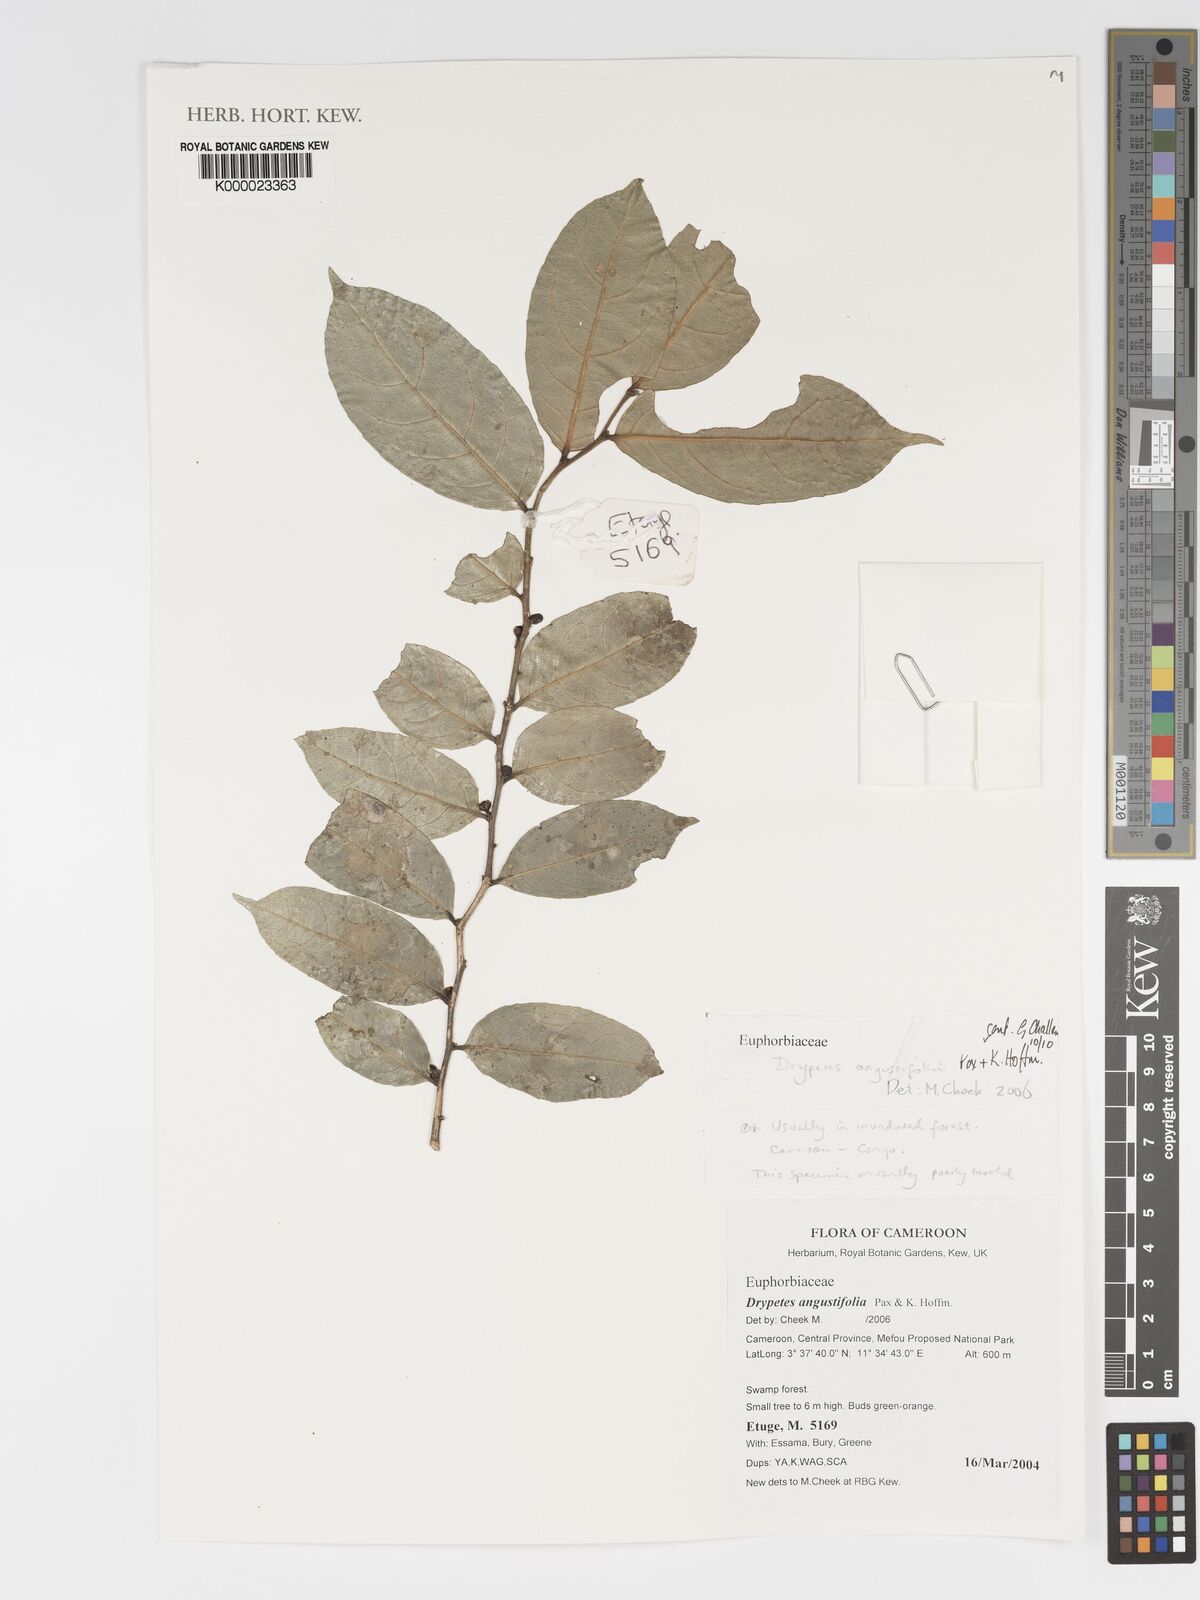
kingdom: Plantae
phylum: Tracheophyta
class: Magnoliopsida
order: Malpighiales
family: Putranjivaceae
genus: Drypetes
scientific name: Drypetes angustifolia
